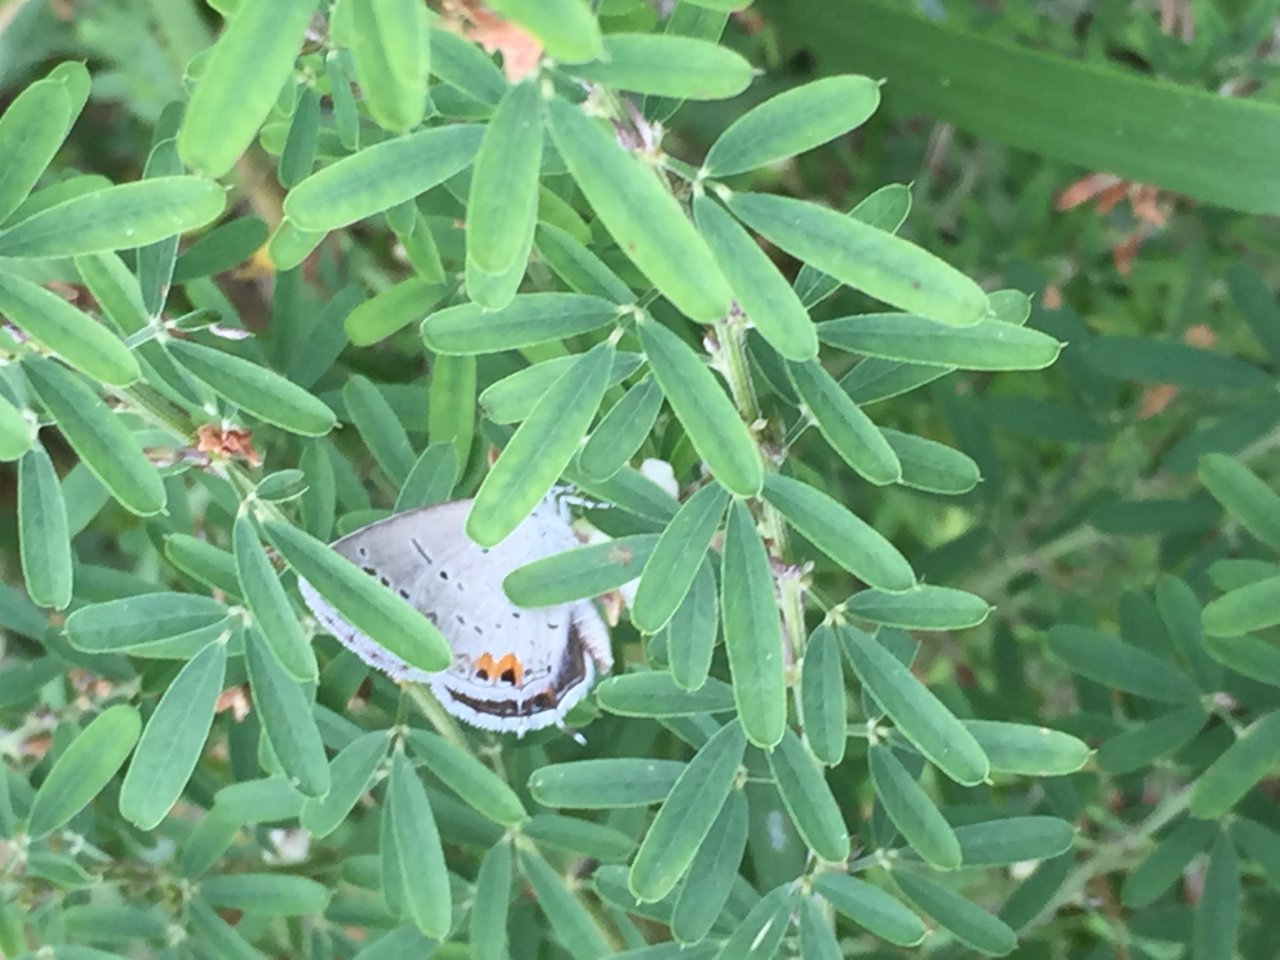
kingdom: Animalia
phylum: Arthropoda
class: Insecta
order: Lepidoptera
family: Lycaenidae
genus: Elkalyce
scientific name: Elkalyce comyntas
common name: Eastern Tailed-Blue
